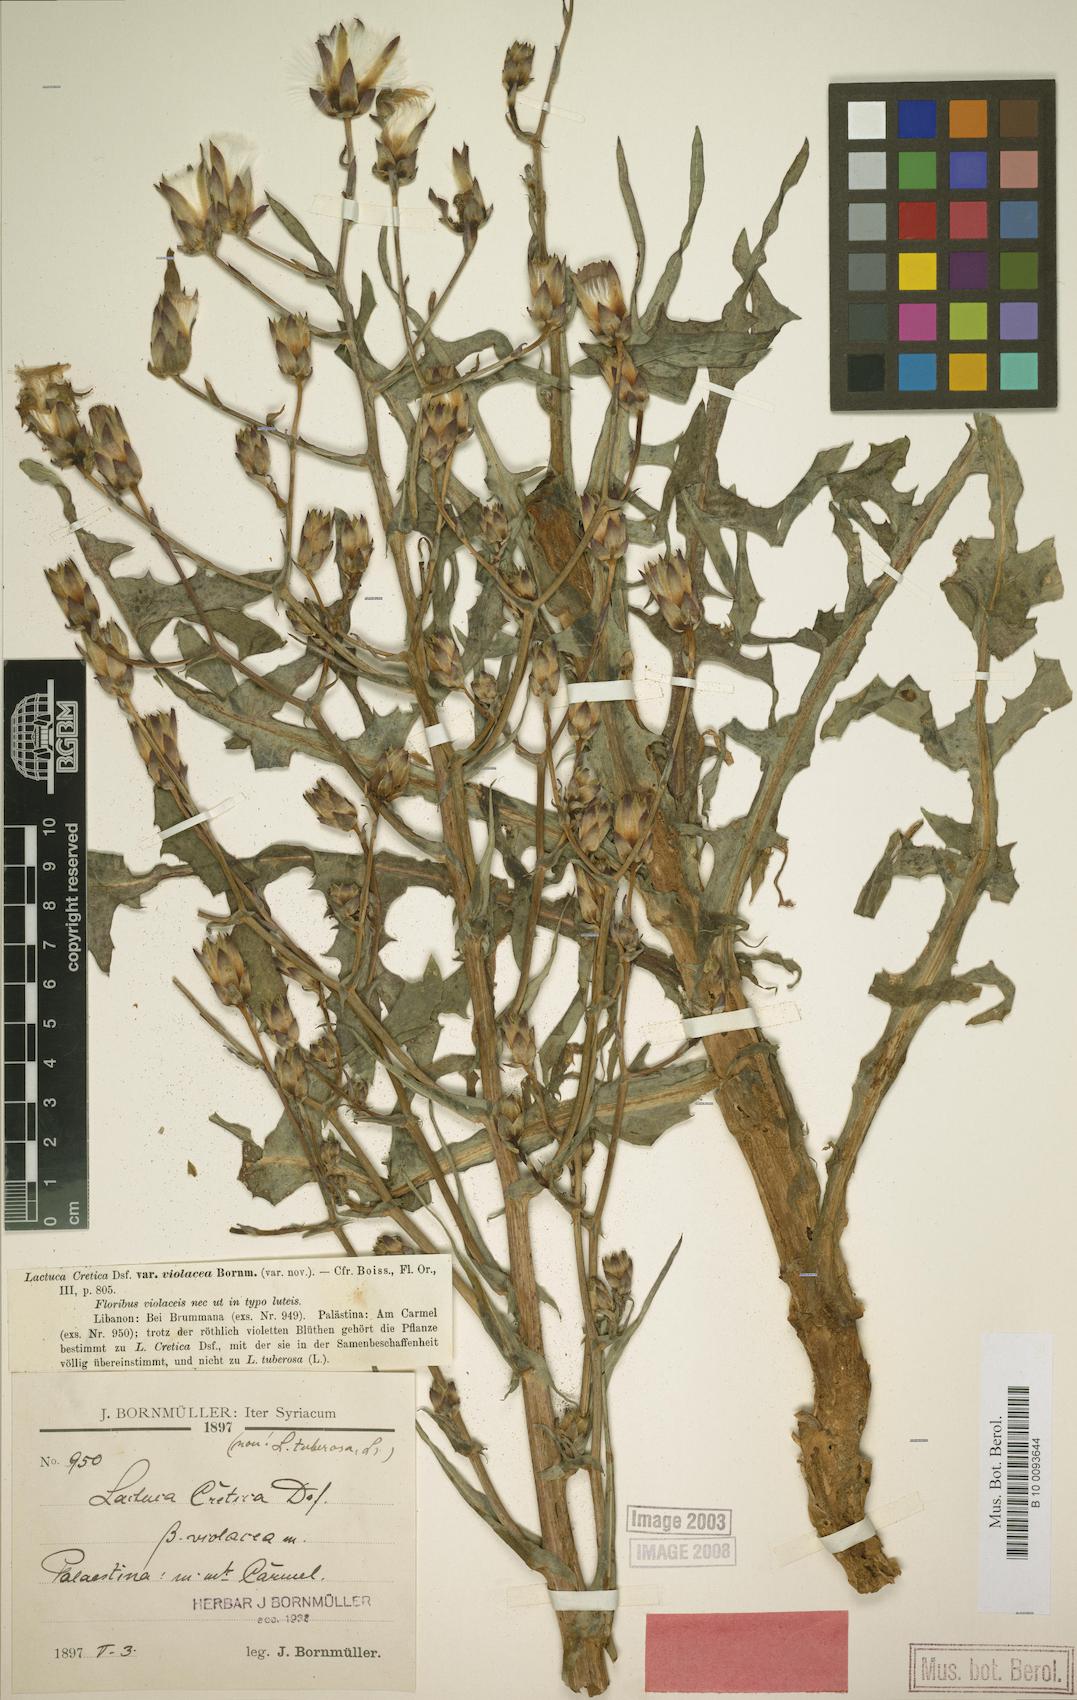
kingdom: Plantae
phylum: Tracheophyta
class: Magnoliopsida
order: Asterales
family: Asteraceae
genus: Lactuca
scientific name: Lactuca tuberosa
